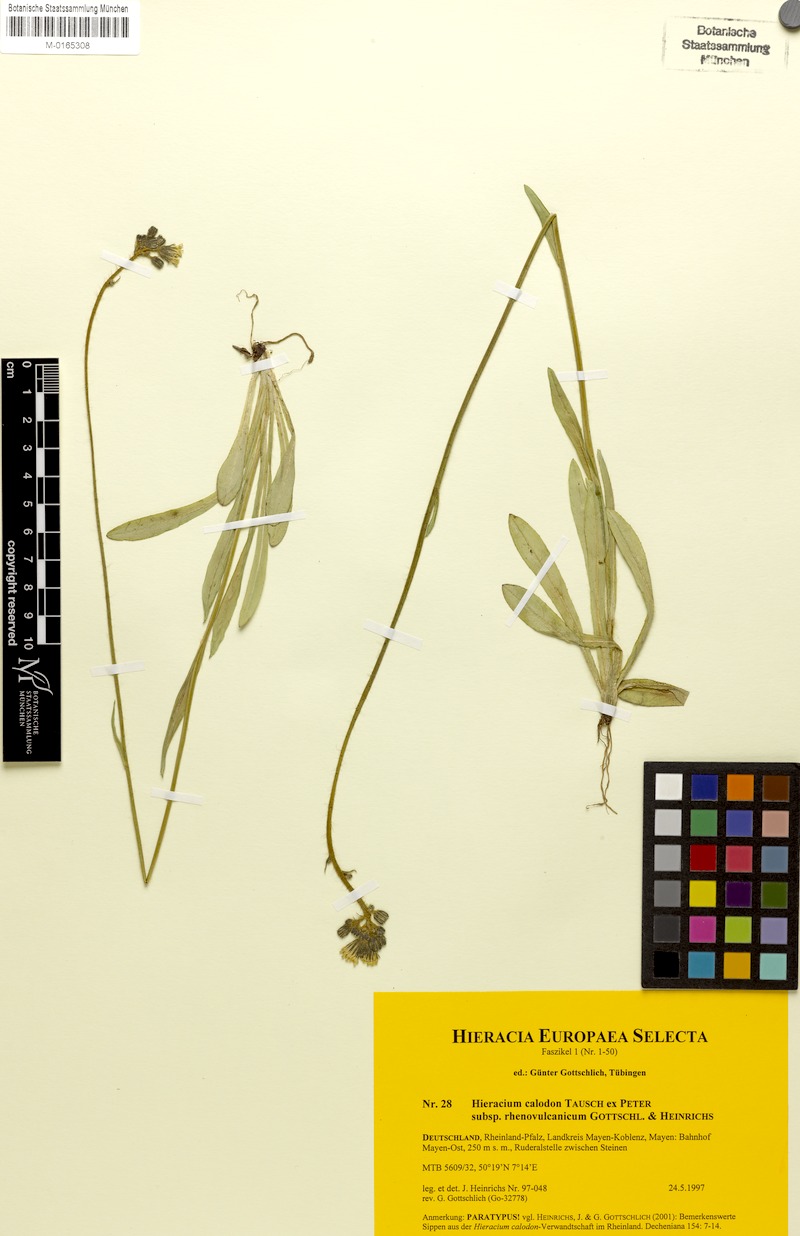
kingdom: Plantae
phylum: Tracheophyta
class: Magnoliopsida
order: Asterales
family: Asteraceae
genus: Pilosella
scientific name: Pilosella calodon
